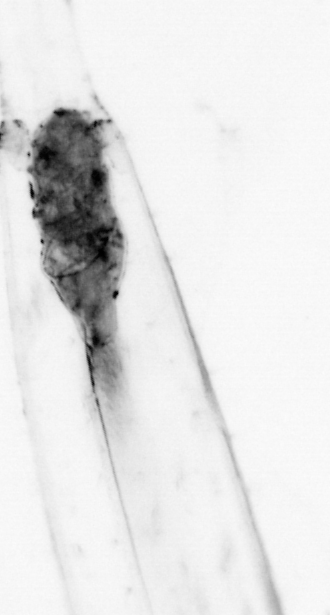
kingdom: Animalia
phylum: Chaetognatha
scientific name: Chaetognatha
